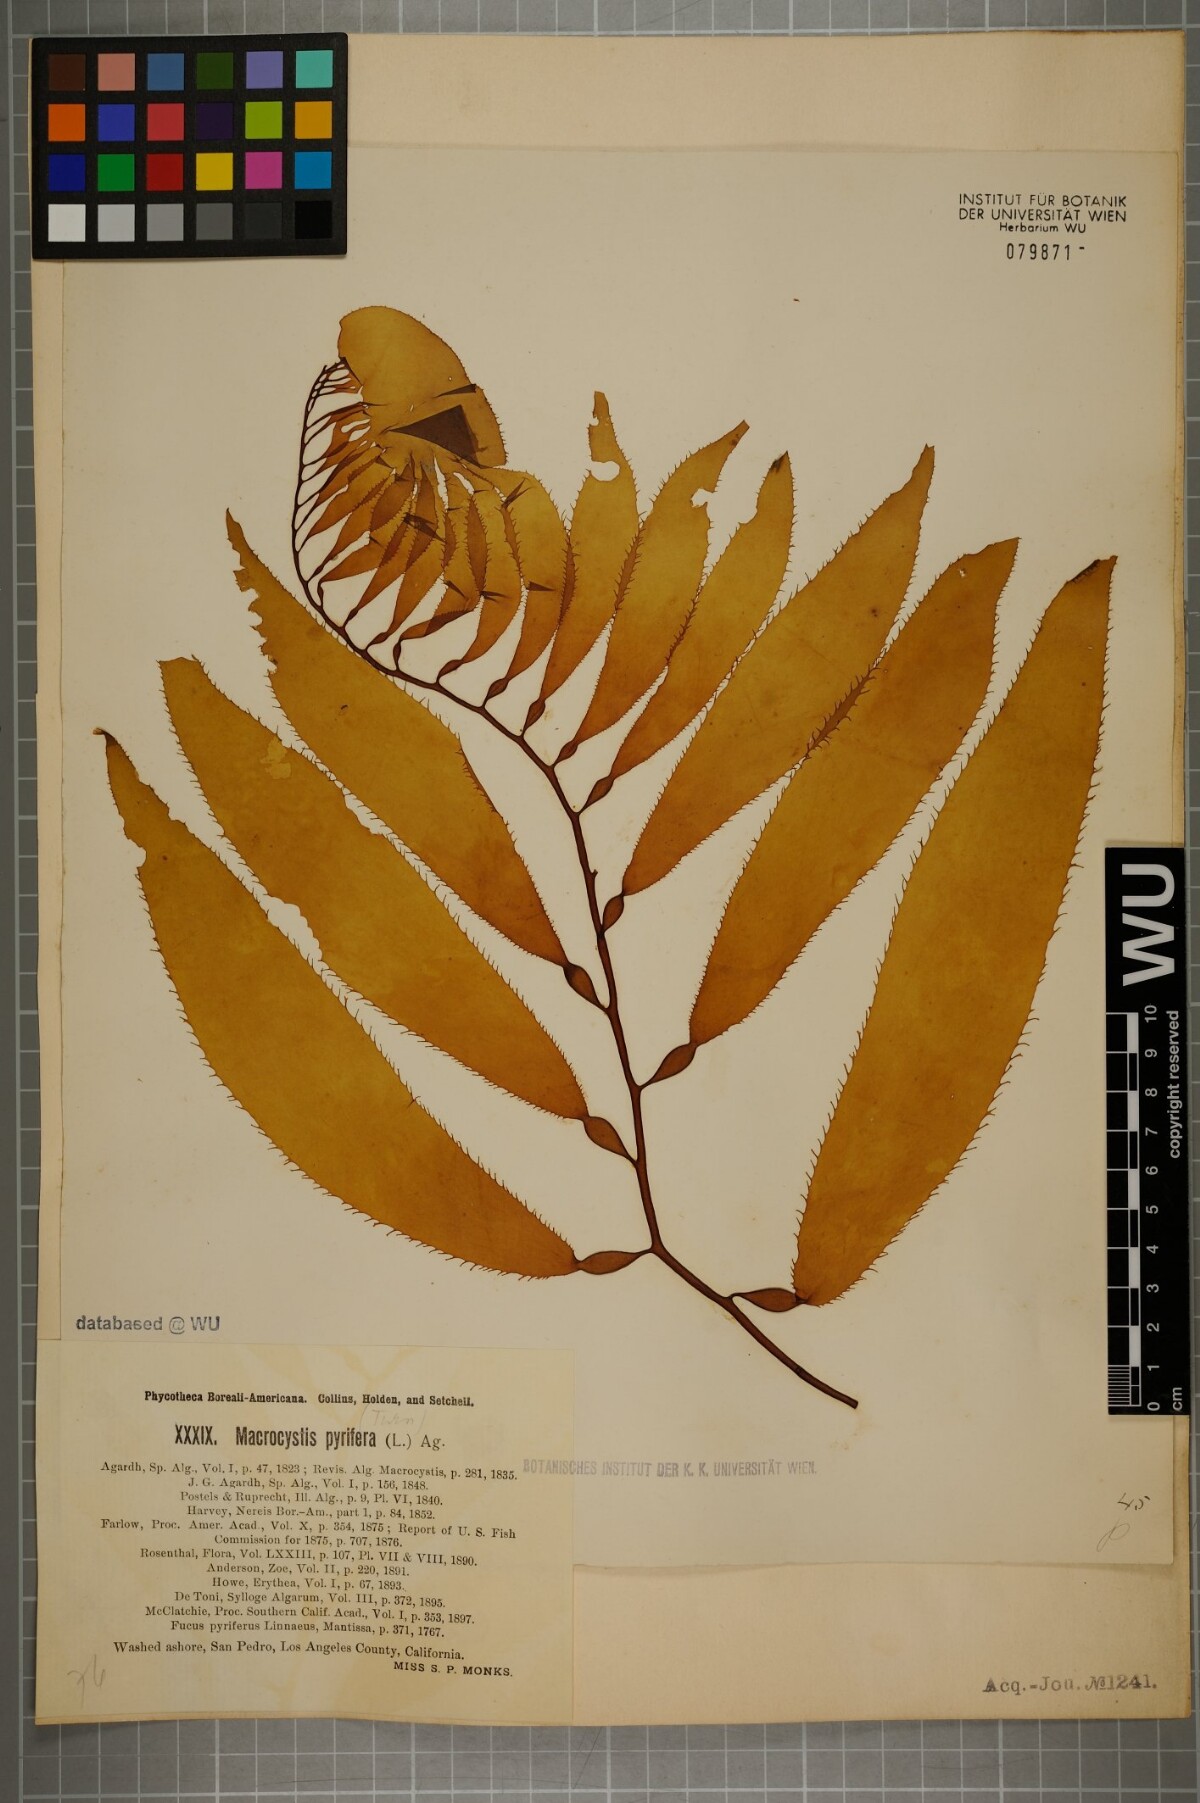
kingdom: Chromista
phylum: Ochrophyta
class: Phaeophyceae
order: Laminariales
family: Laminariaceae
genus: Macrocystis
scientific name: Macrocystis pyrifera
